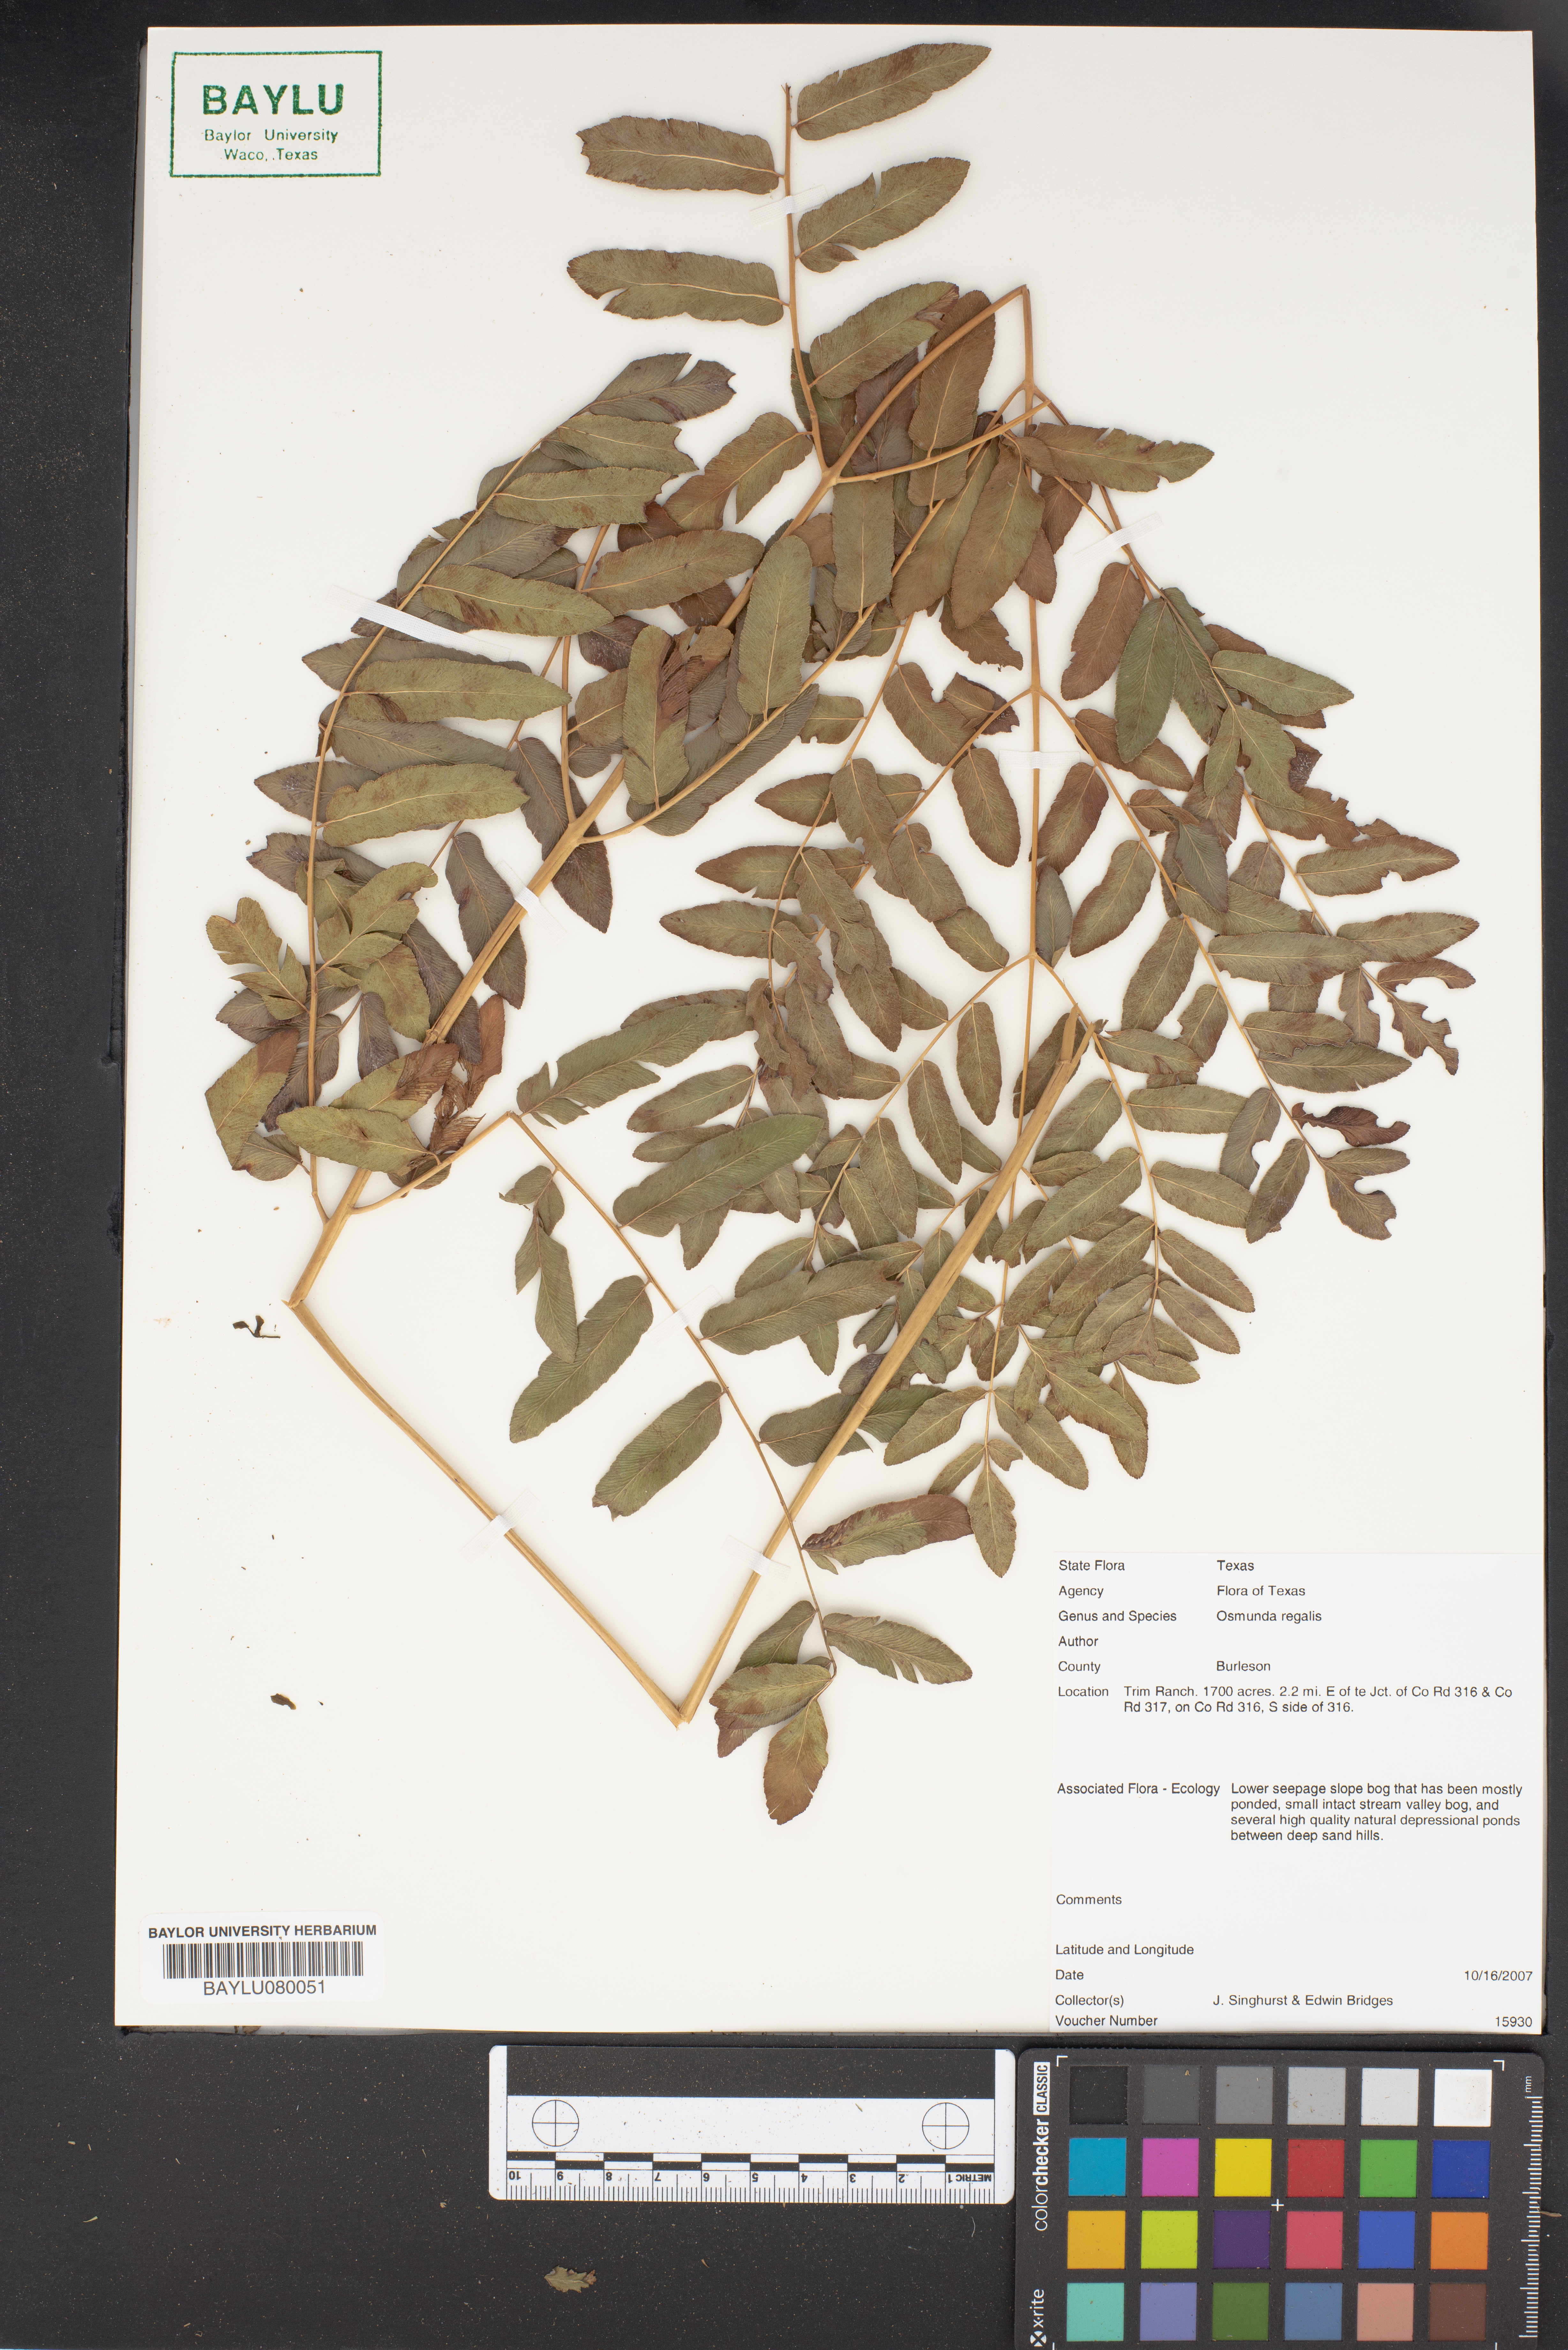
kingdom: Plantae
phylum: Tracheophyta
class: Polypodiopsida
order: Osmundales
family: Osmundaceae
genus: Osmunda
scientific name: Osmunda regalis
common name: Royal fern
